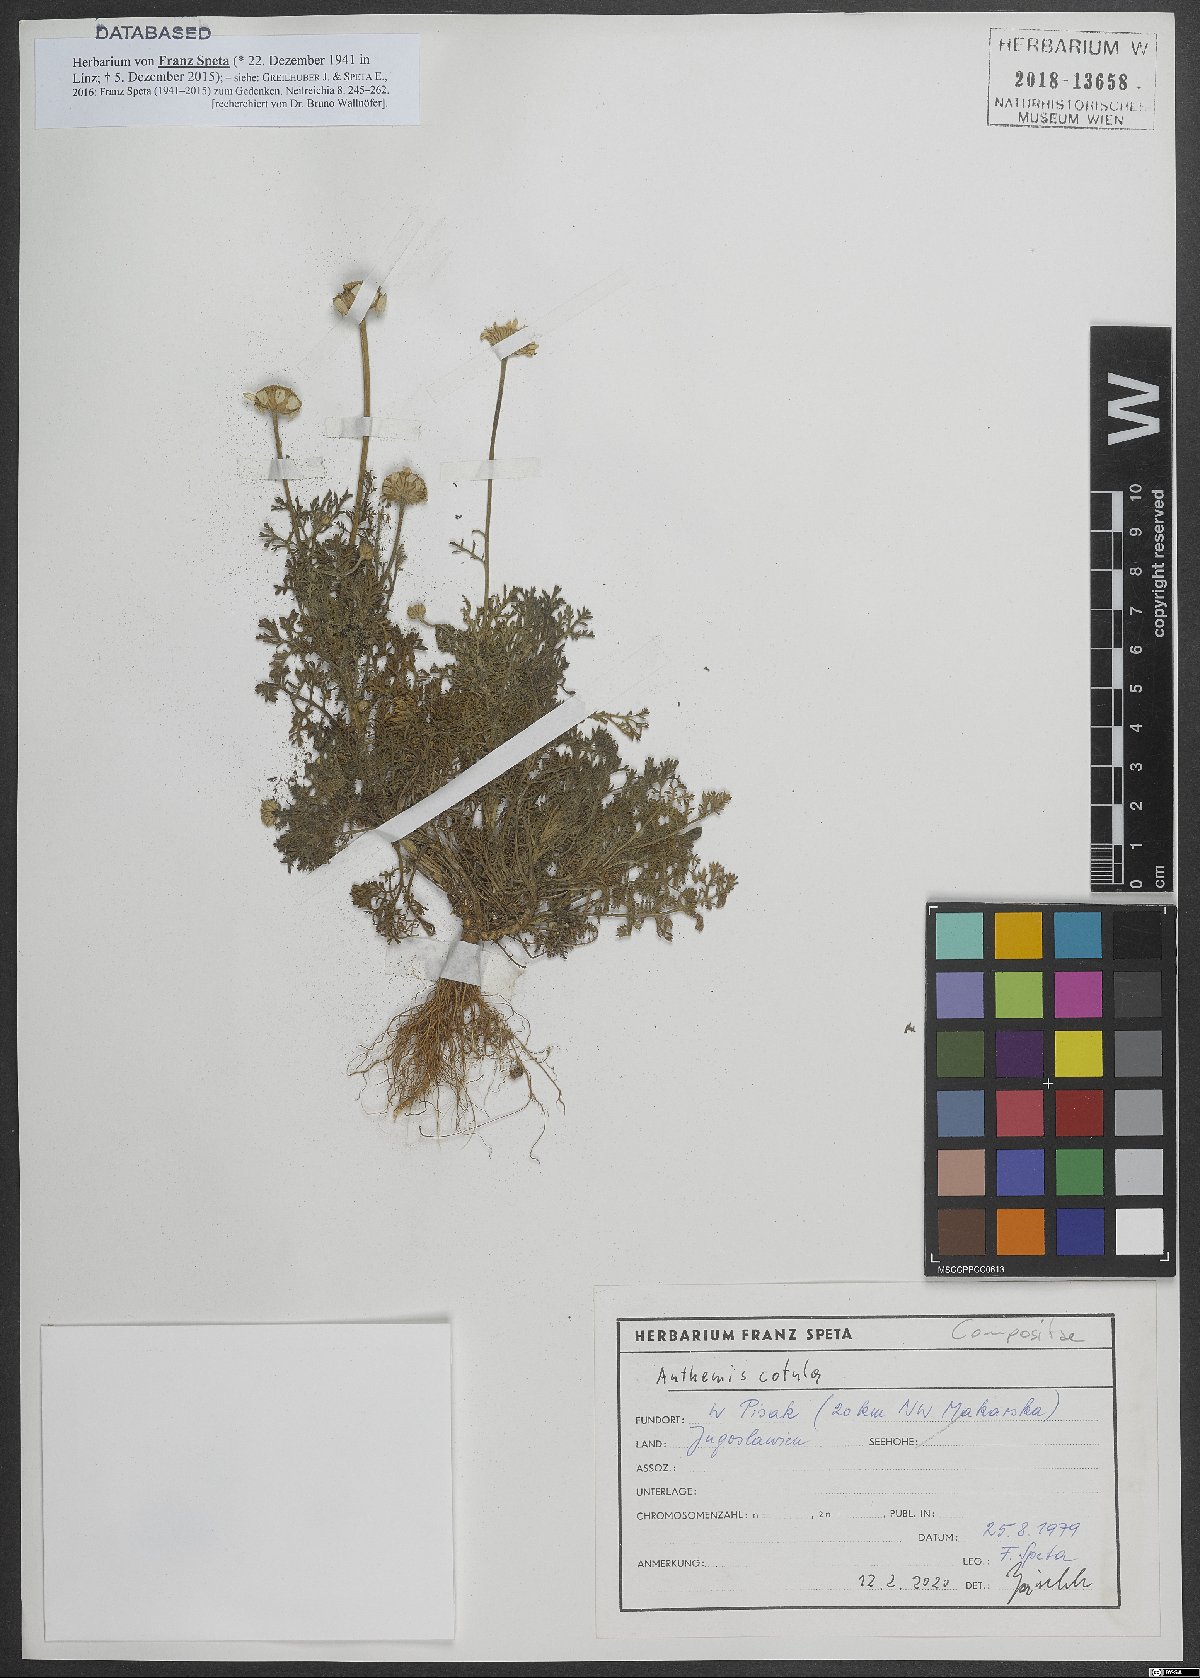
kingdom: Plantae
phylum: Tracheophyta
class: Magnoliopsida
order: Asterales
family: Asteraceae
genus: Anthemis
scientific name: Anthemis cotula
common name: Stinking chamomile
